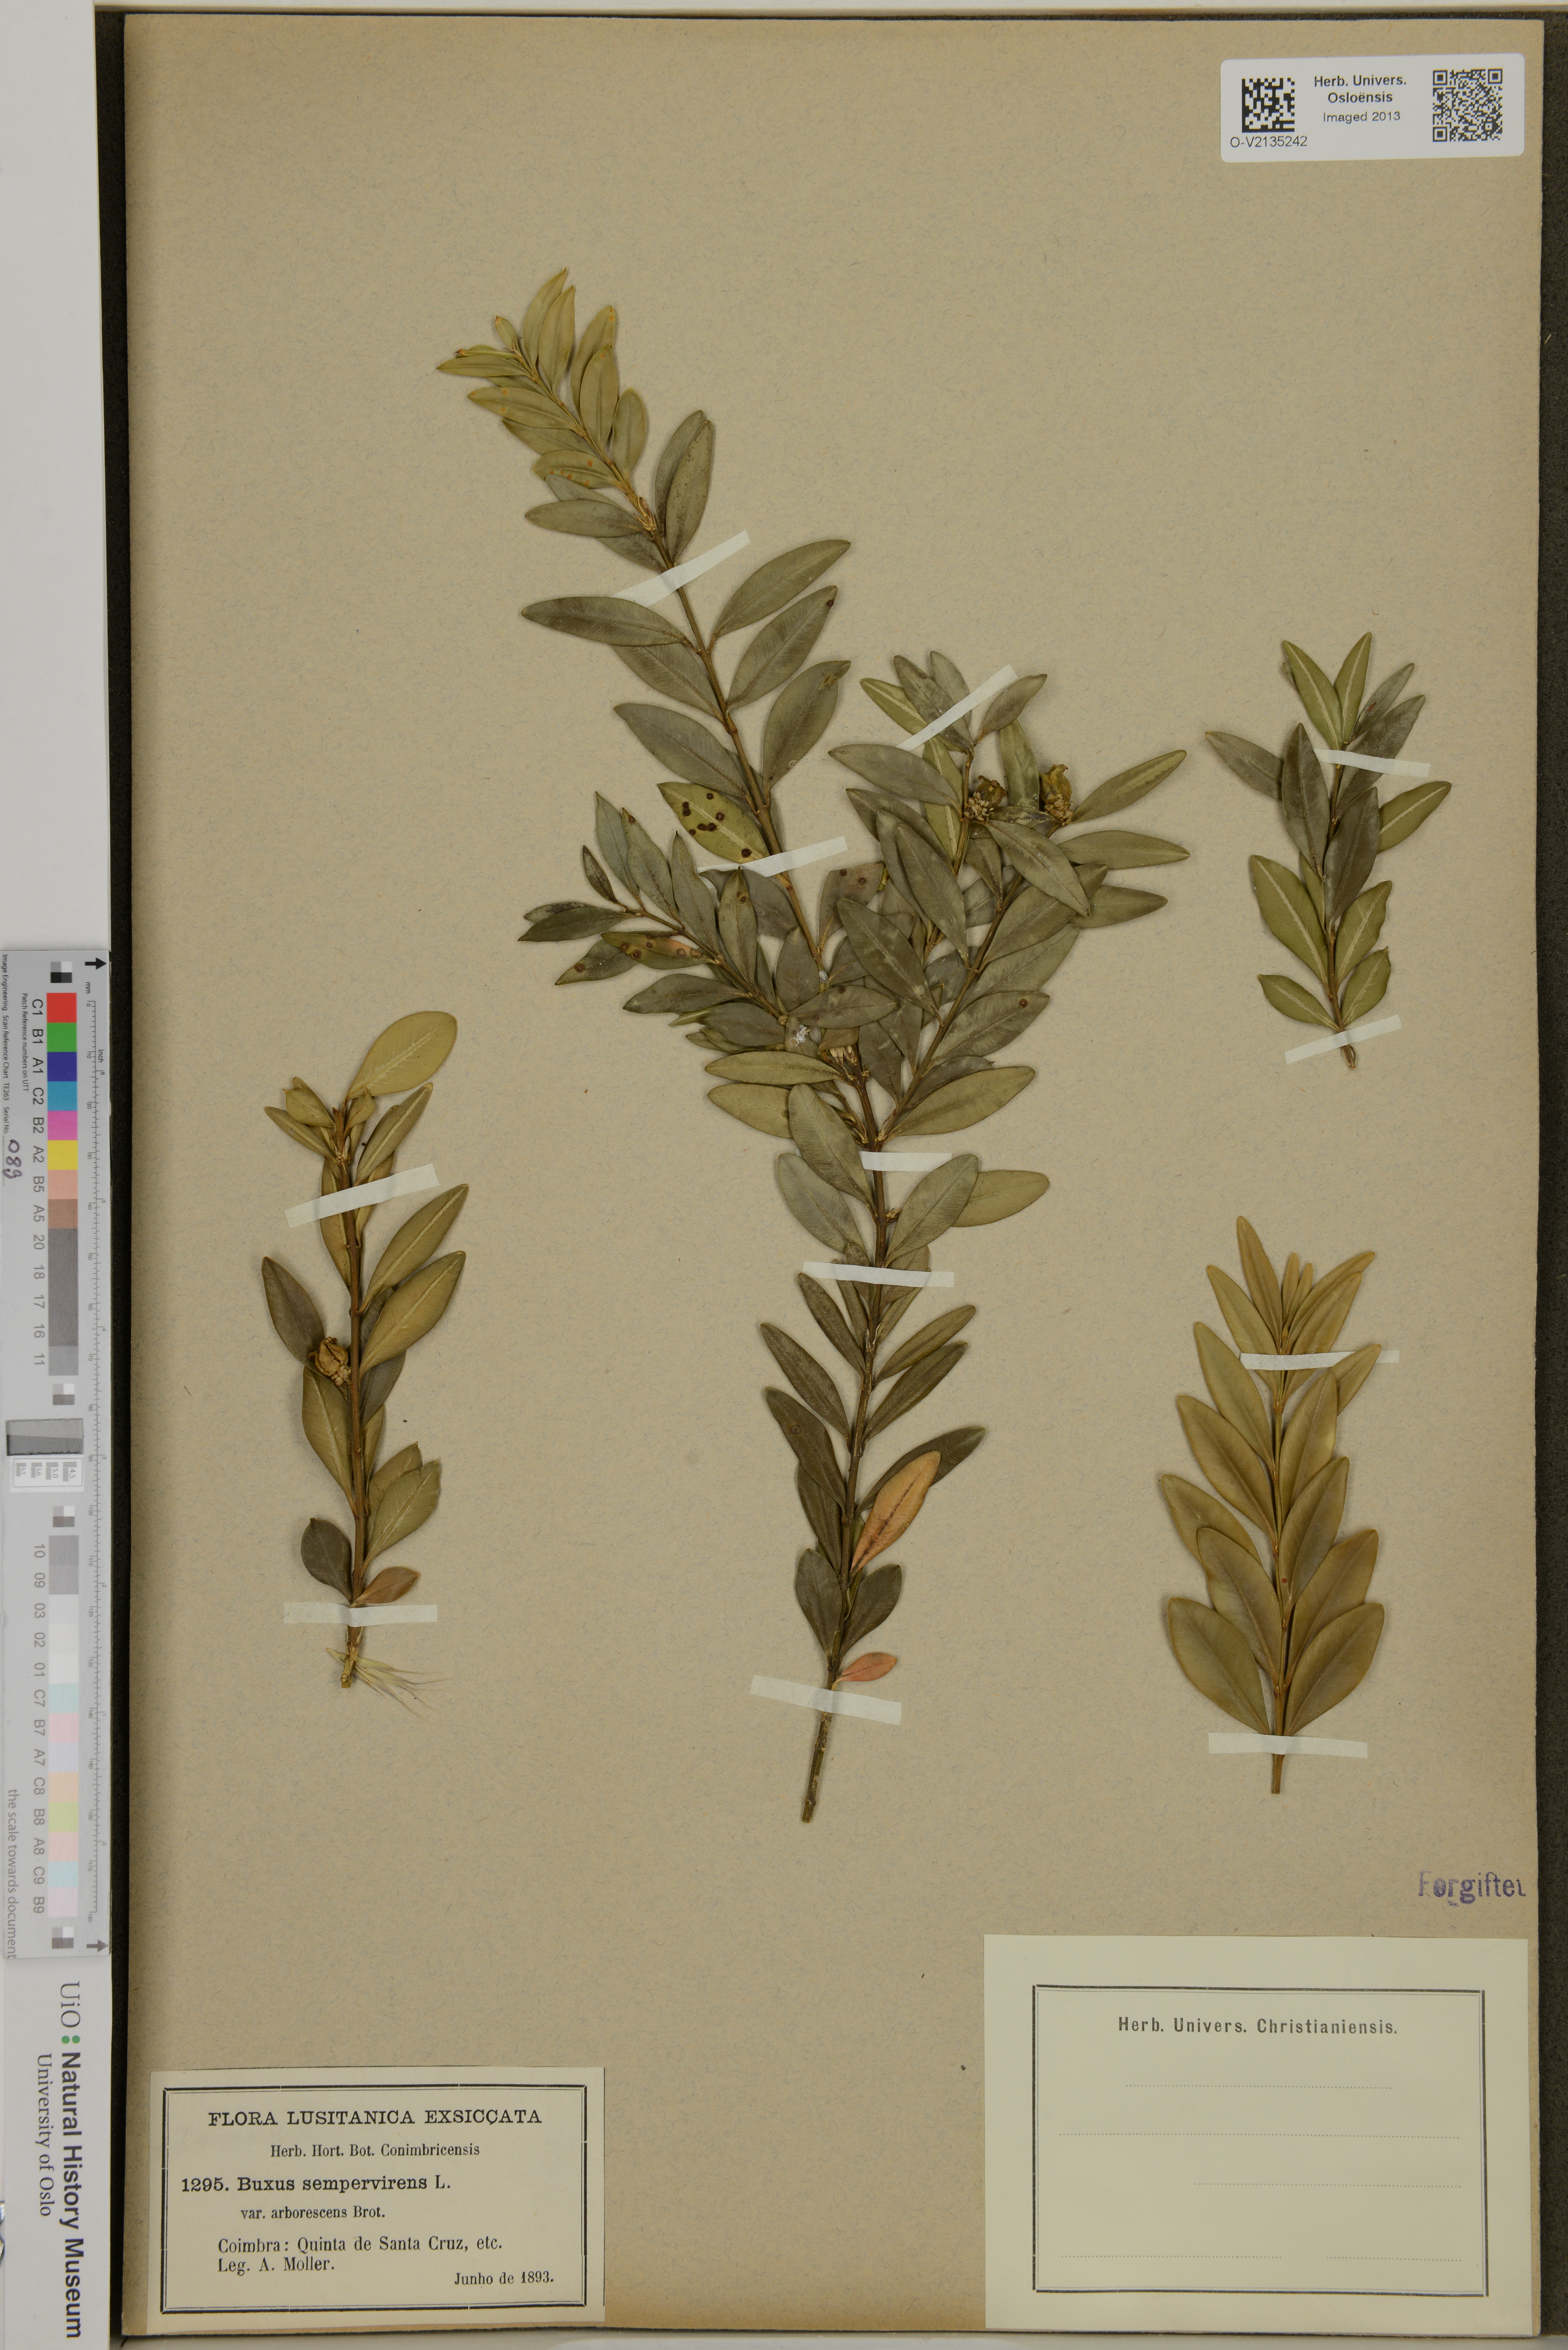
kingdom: Plantae
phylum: Tracheophyta
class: Magnoliopsida
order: Buxales
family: Buxaceae
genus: Buxus
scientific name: Buxus sempervirens
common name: Box
